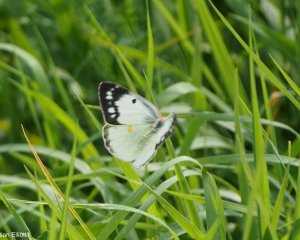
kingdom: Animalia
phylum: Arthropoda
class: Insecta
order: Lepidoptera
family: Pieridae
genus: Colias
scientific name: Colias eurytheme
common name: Orange Sulphur
